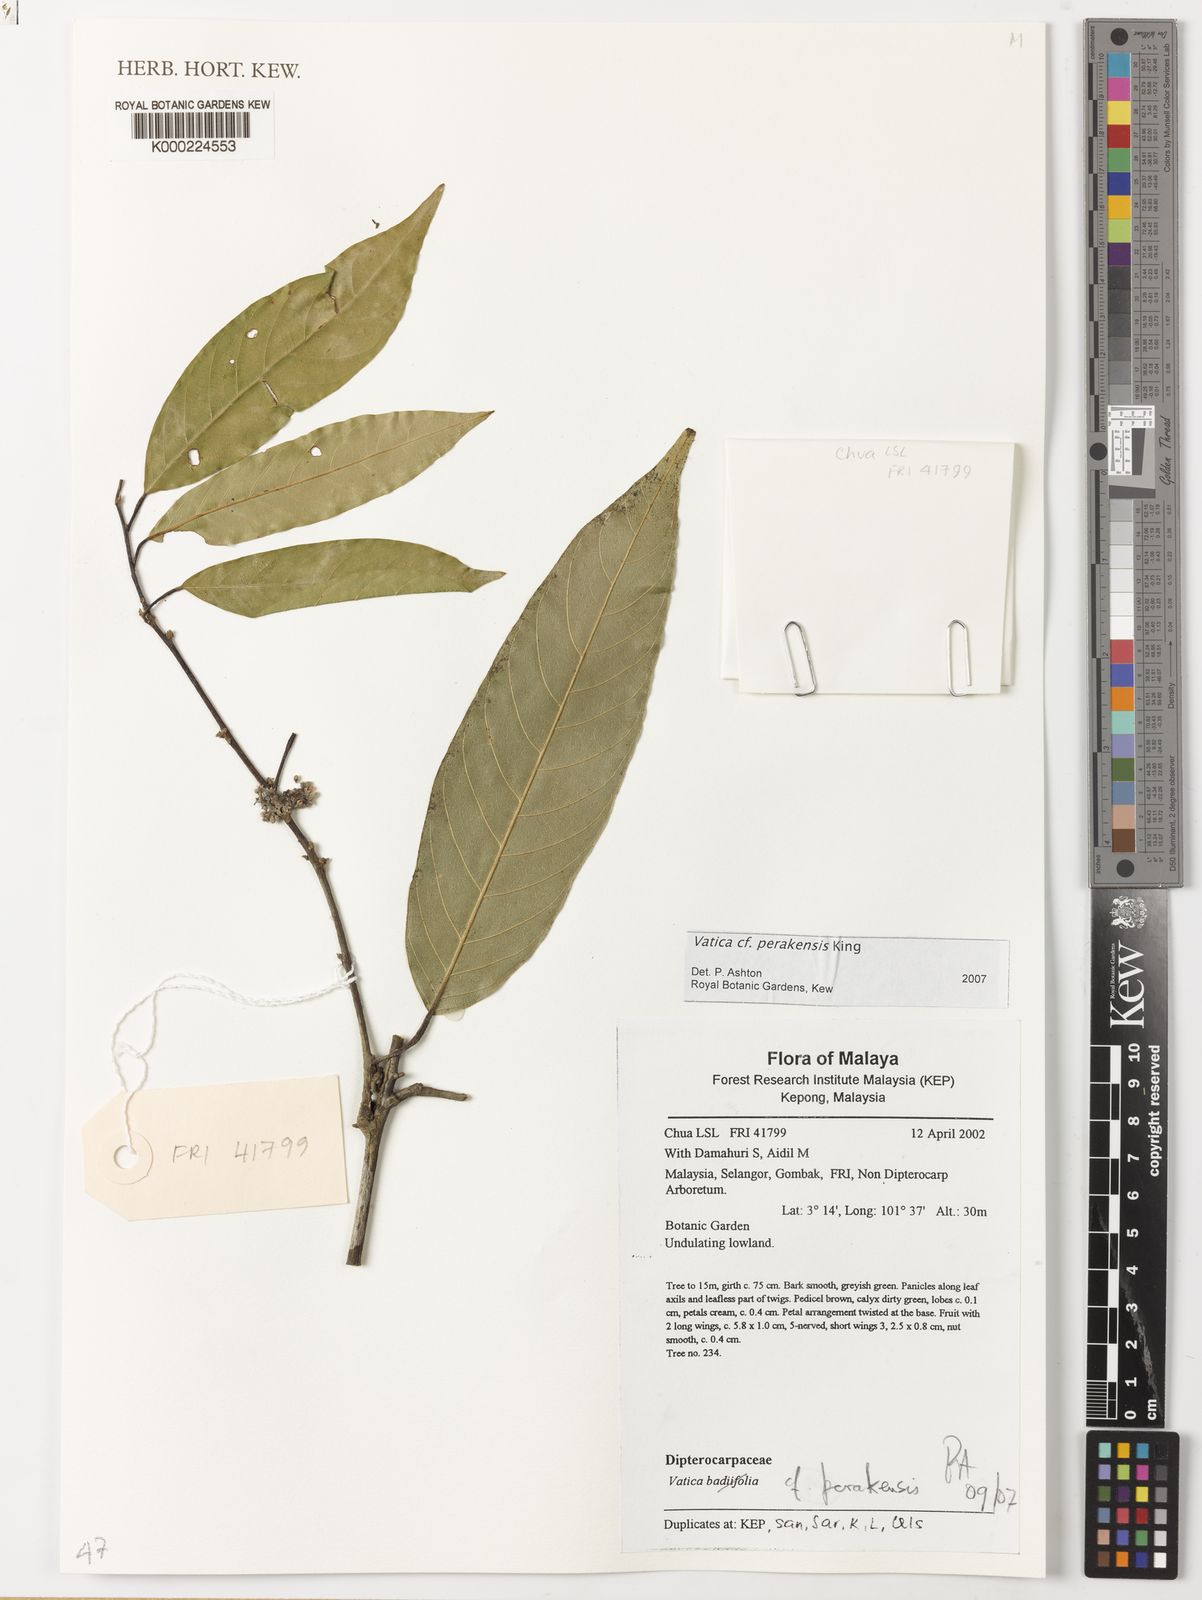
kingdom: Plantae
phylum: Tracheophyta
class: Magnoliopsida
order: Malvales
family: Dipterocarpaceae
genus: Vatica
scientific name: Vatica perakensis
